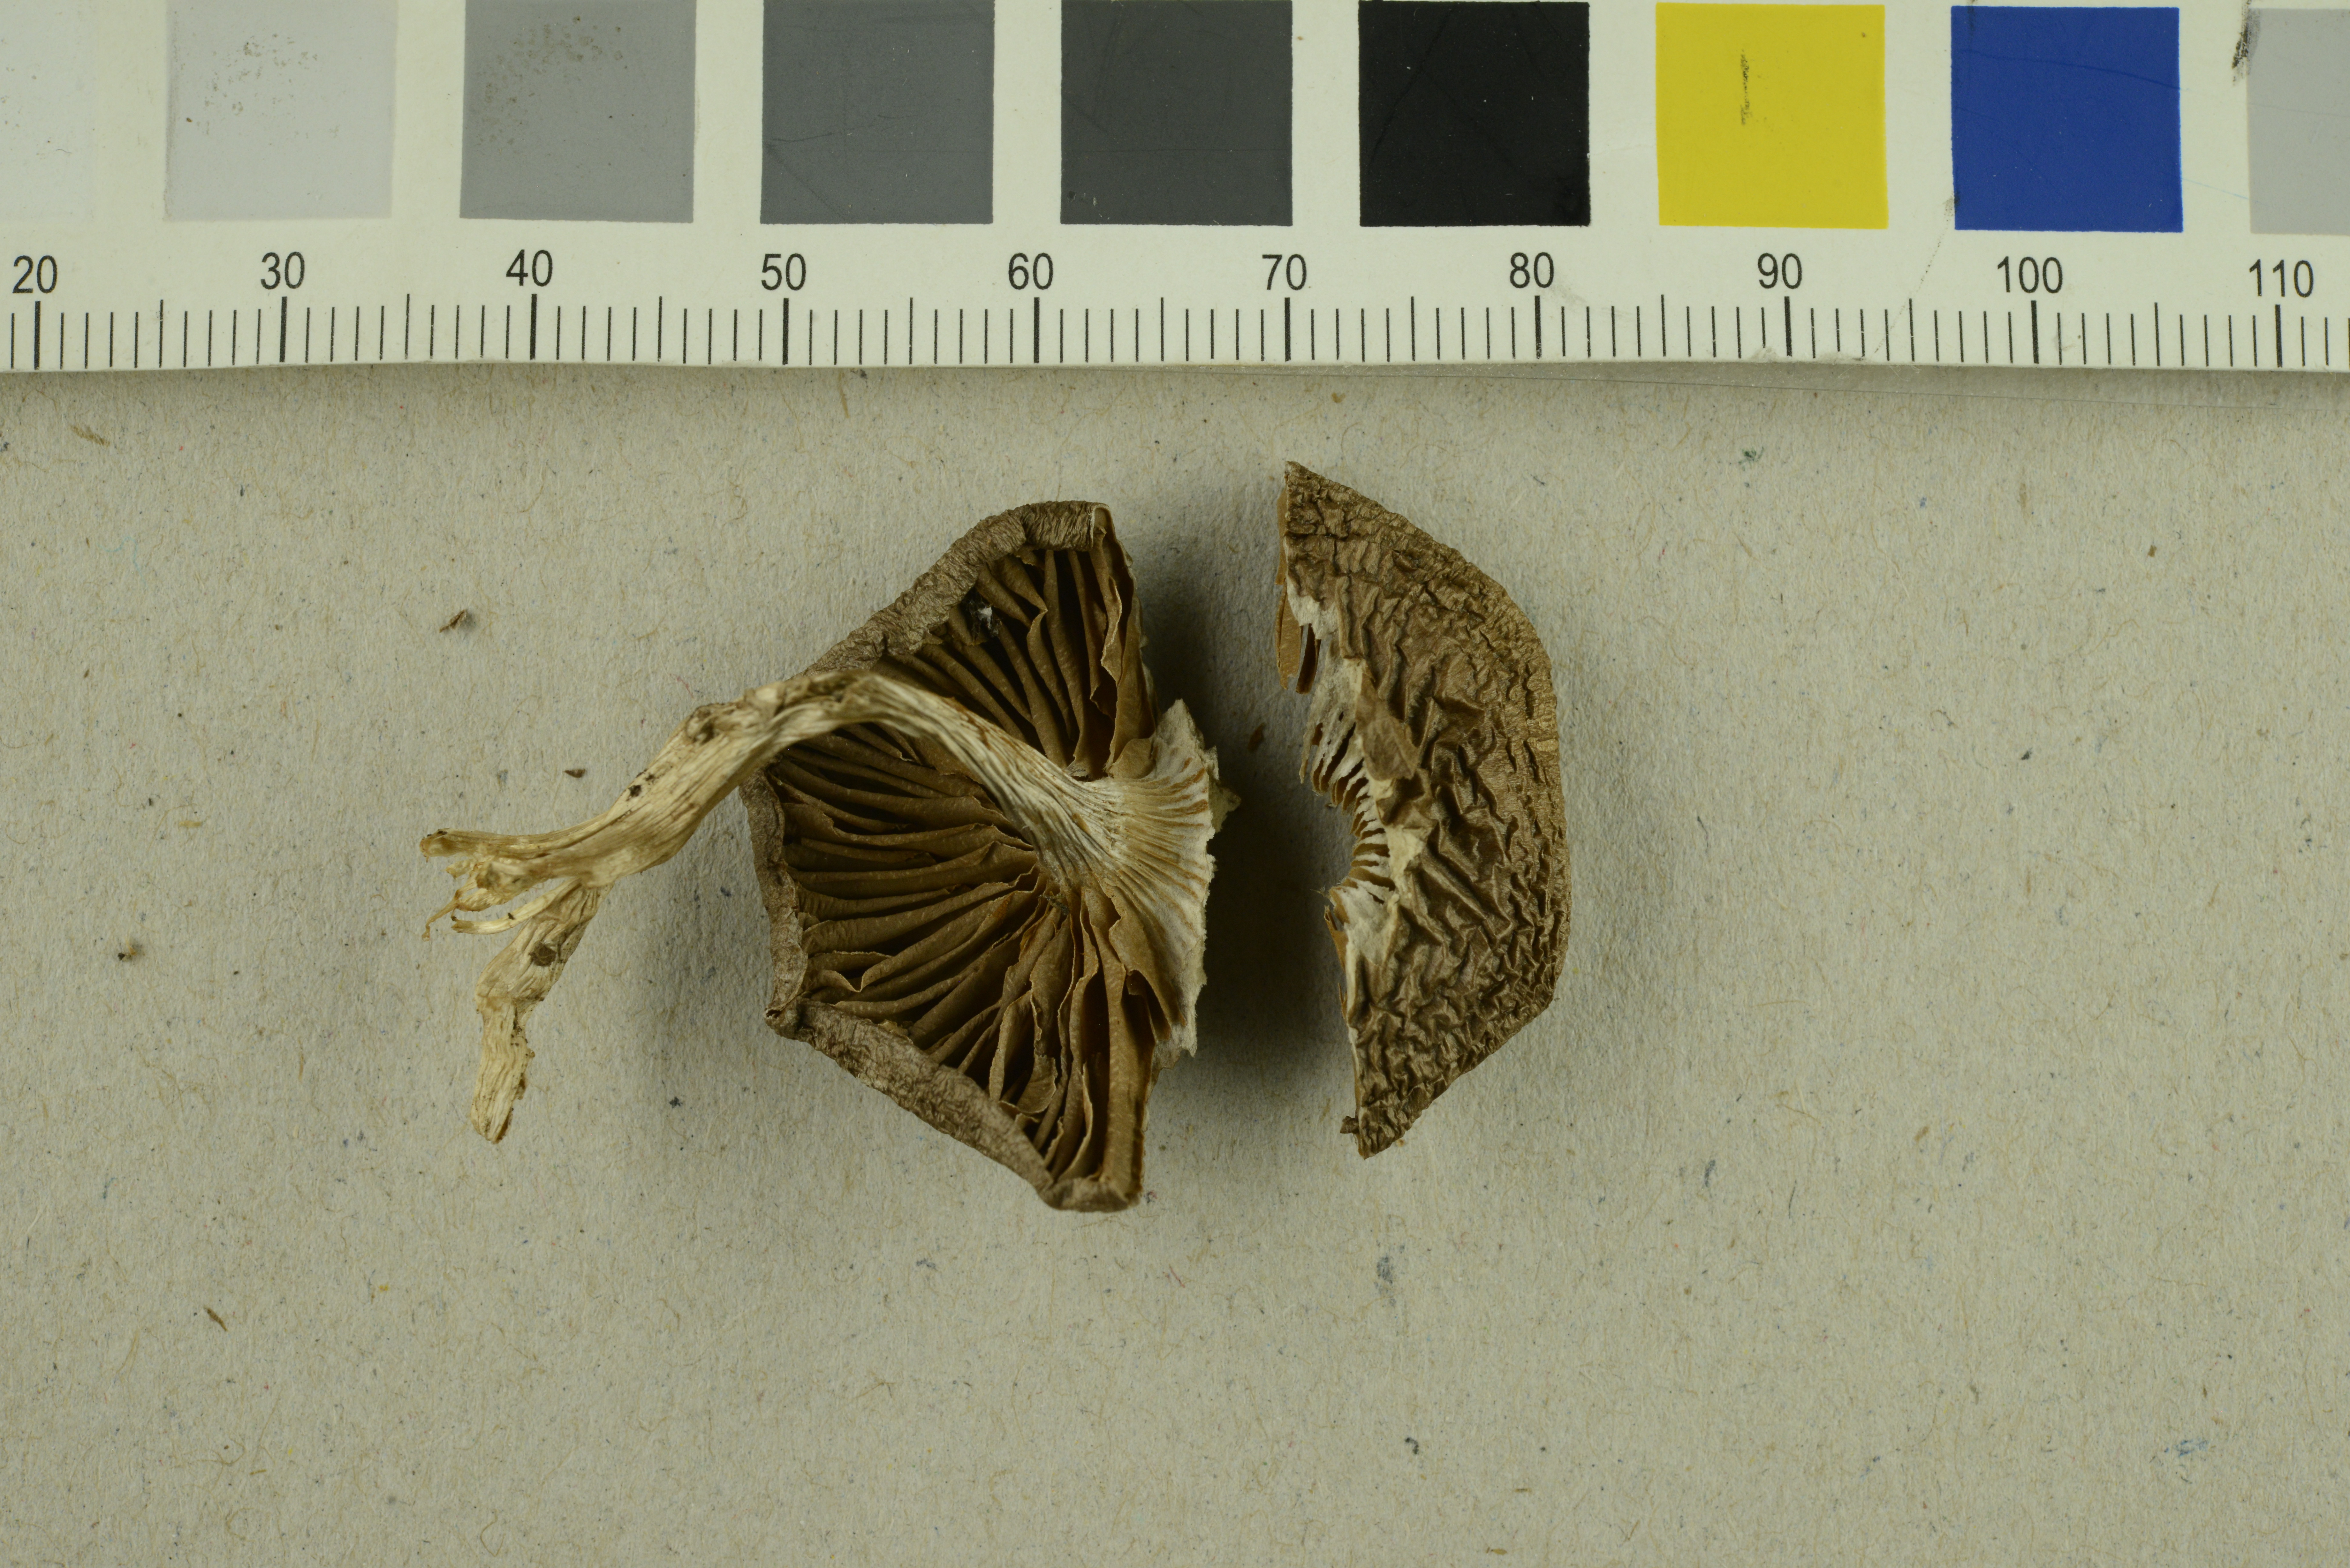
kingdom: Fungi
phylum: Basidiomycota
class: Agaricomycetes
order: Agaricales
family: Cortinariaceae
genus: Cortinarius
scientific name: Cortinarius anomalellus
